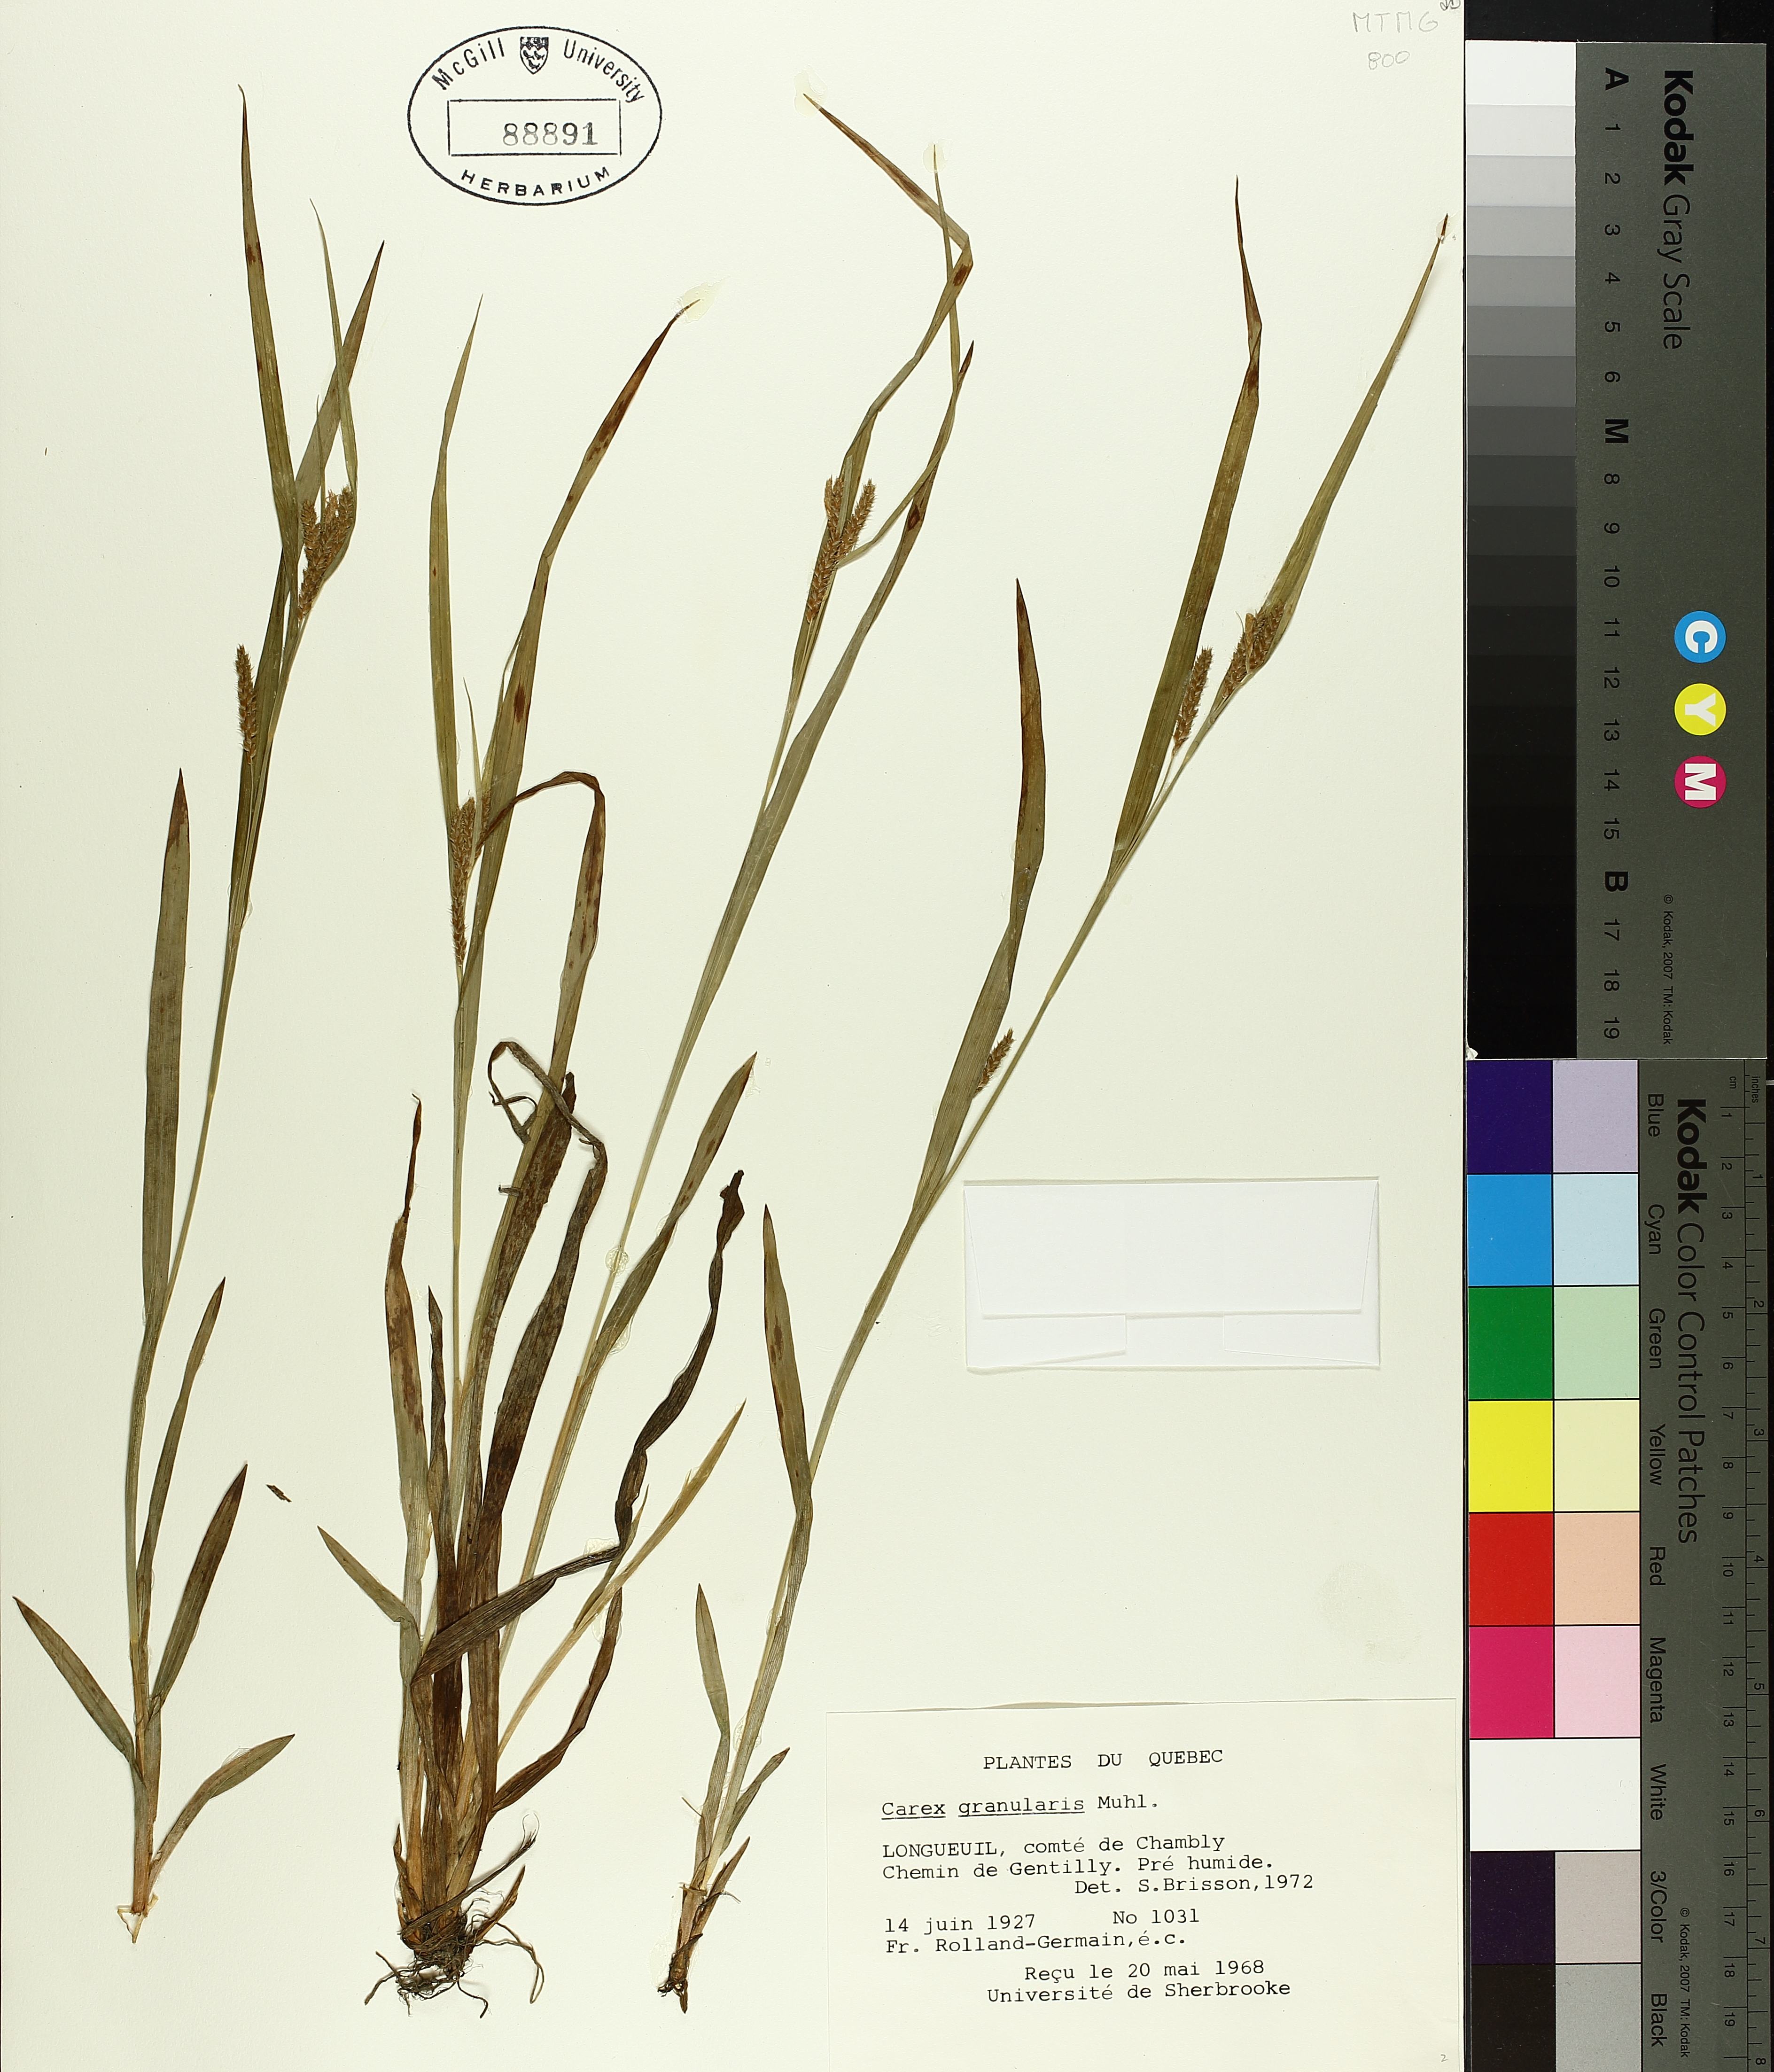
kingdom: Plantae
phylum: Tracheophyta
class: Liliopsida
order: Poales
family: Cyperaceae
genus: Carex
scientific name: Carex granularis
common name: Granular sedge
